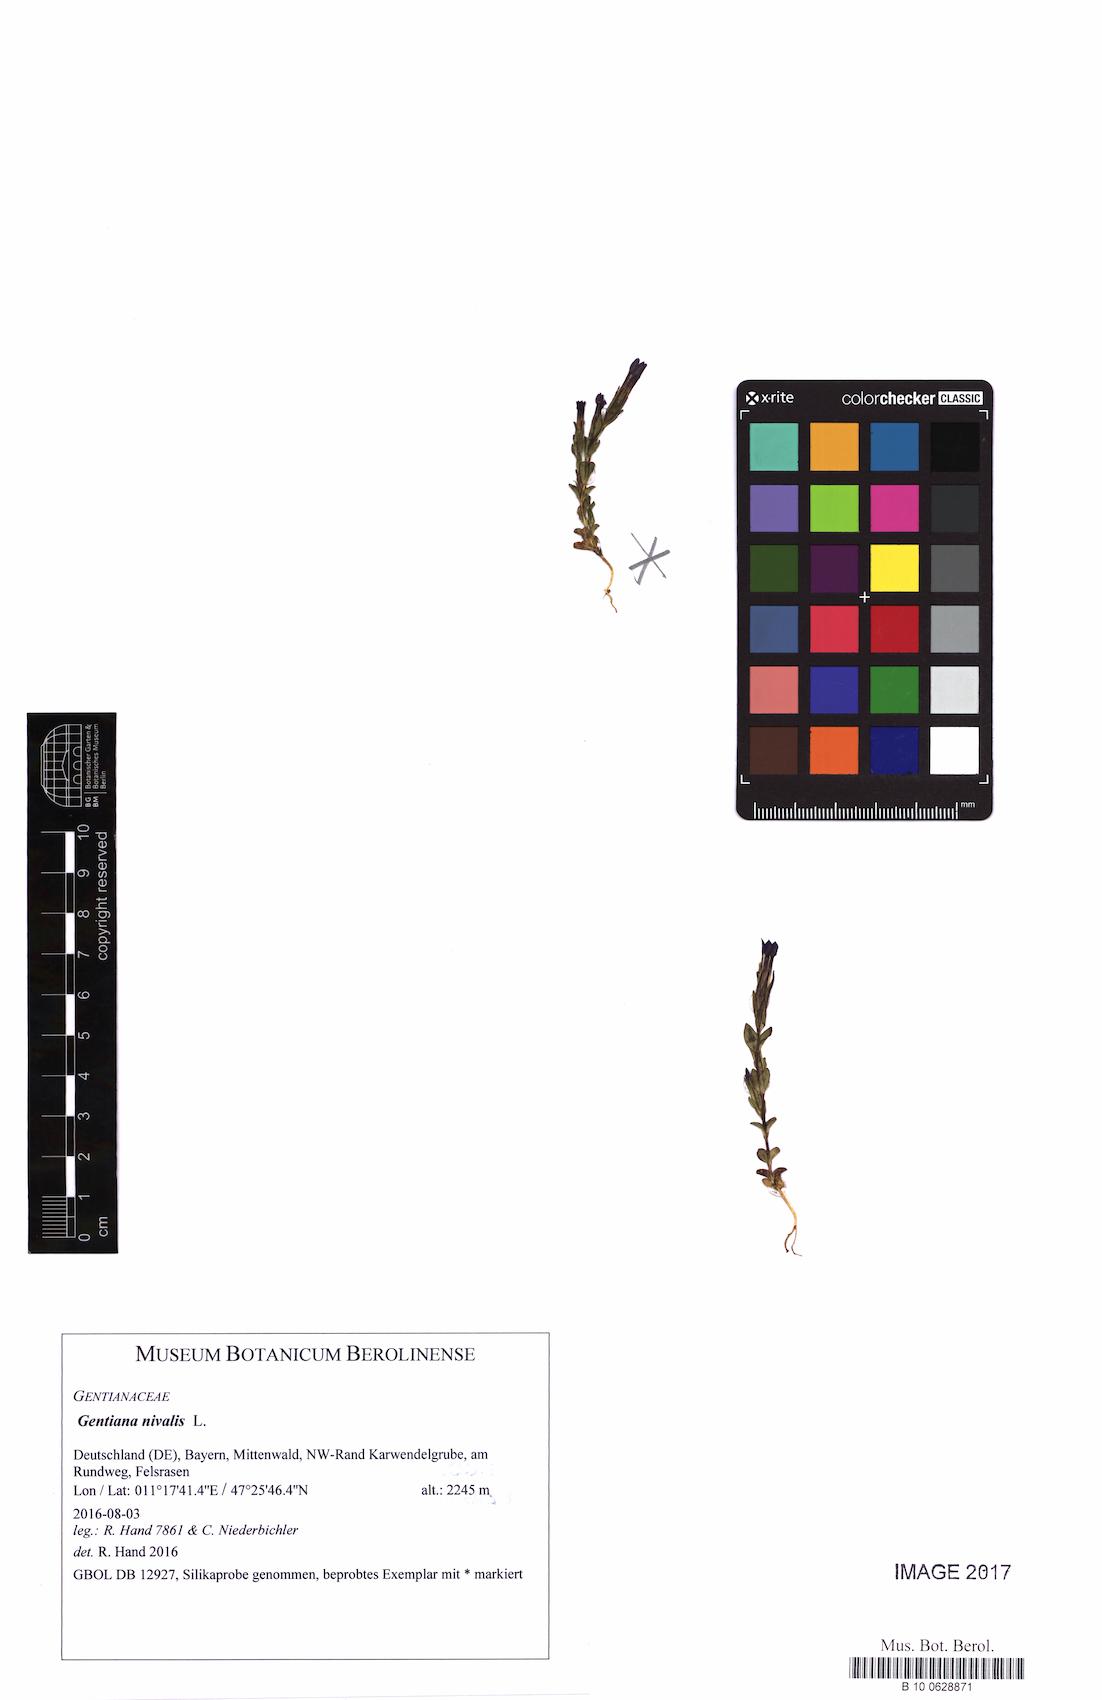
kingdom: Plantae
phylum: Tracheophyta
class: Magnoliopsida
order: Gentianales
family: Gentianaceae
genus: Gentiana
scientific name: Gentiana nivalis
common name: Alpine gentian
